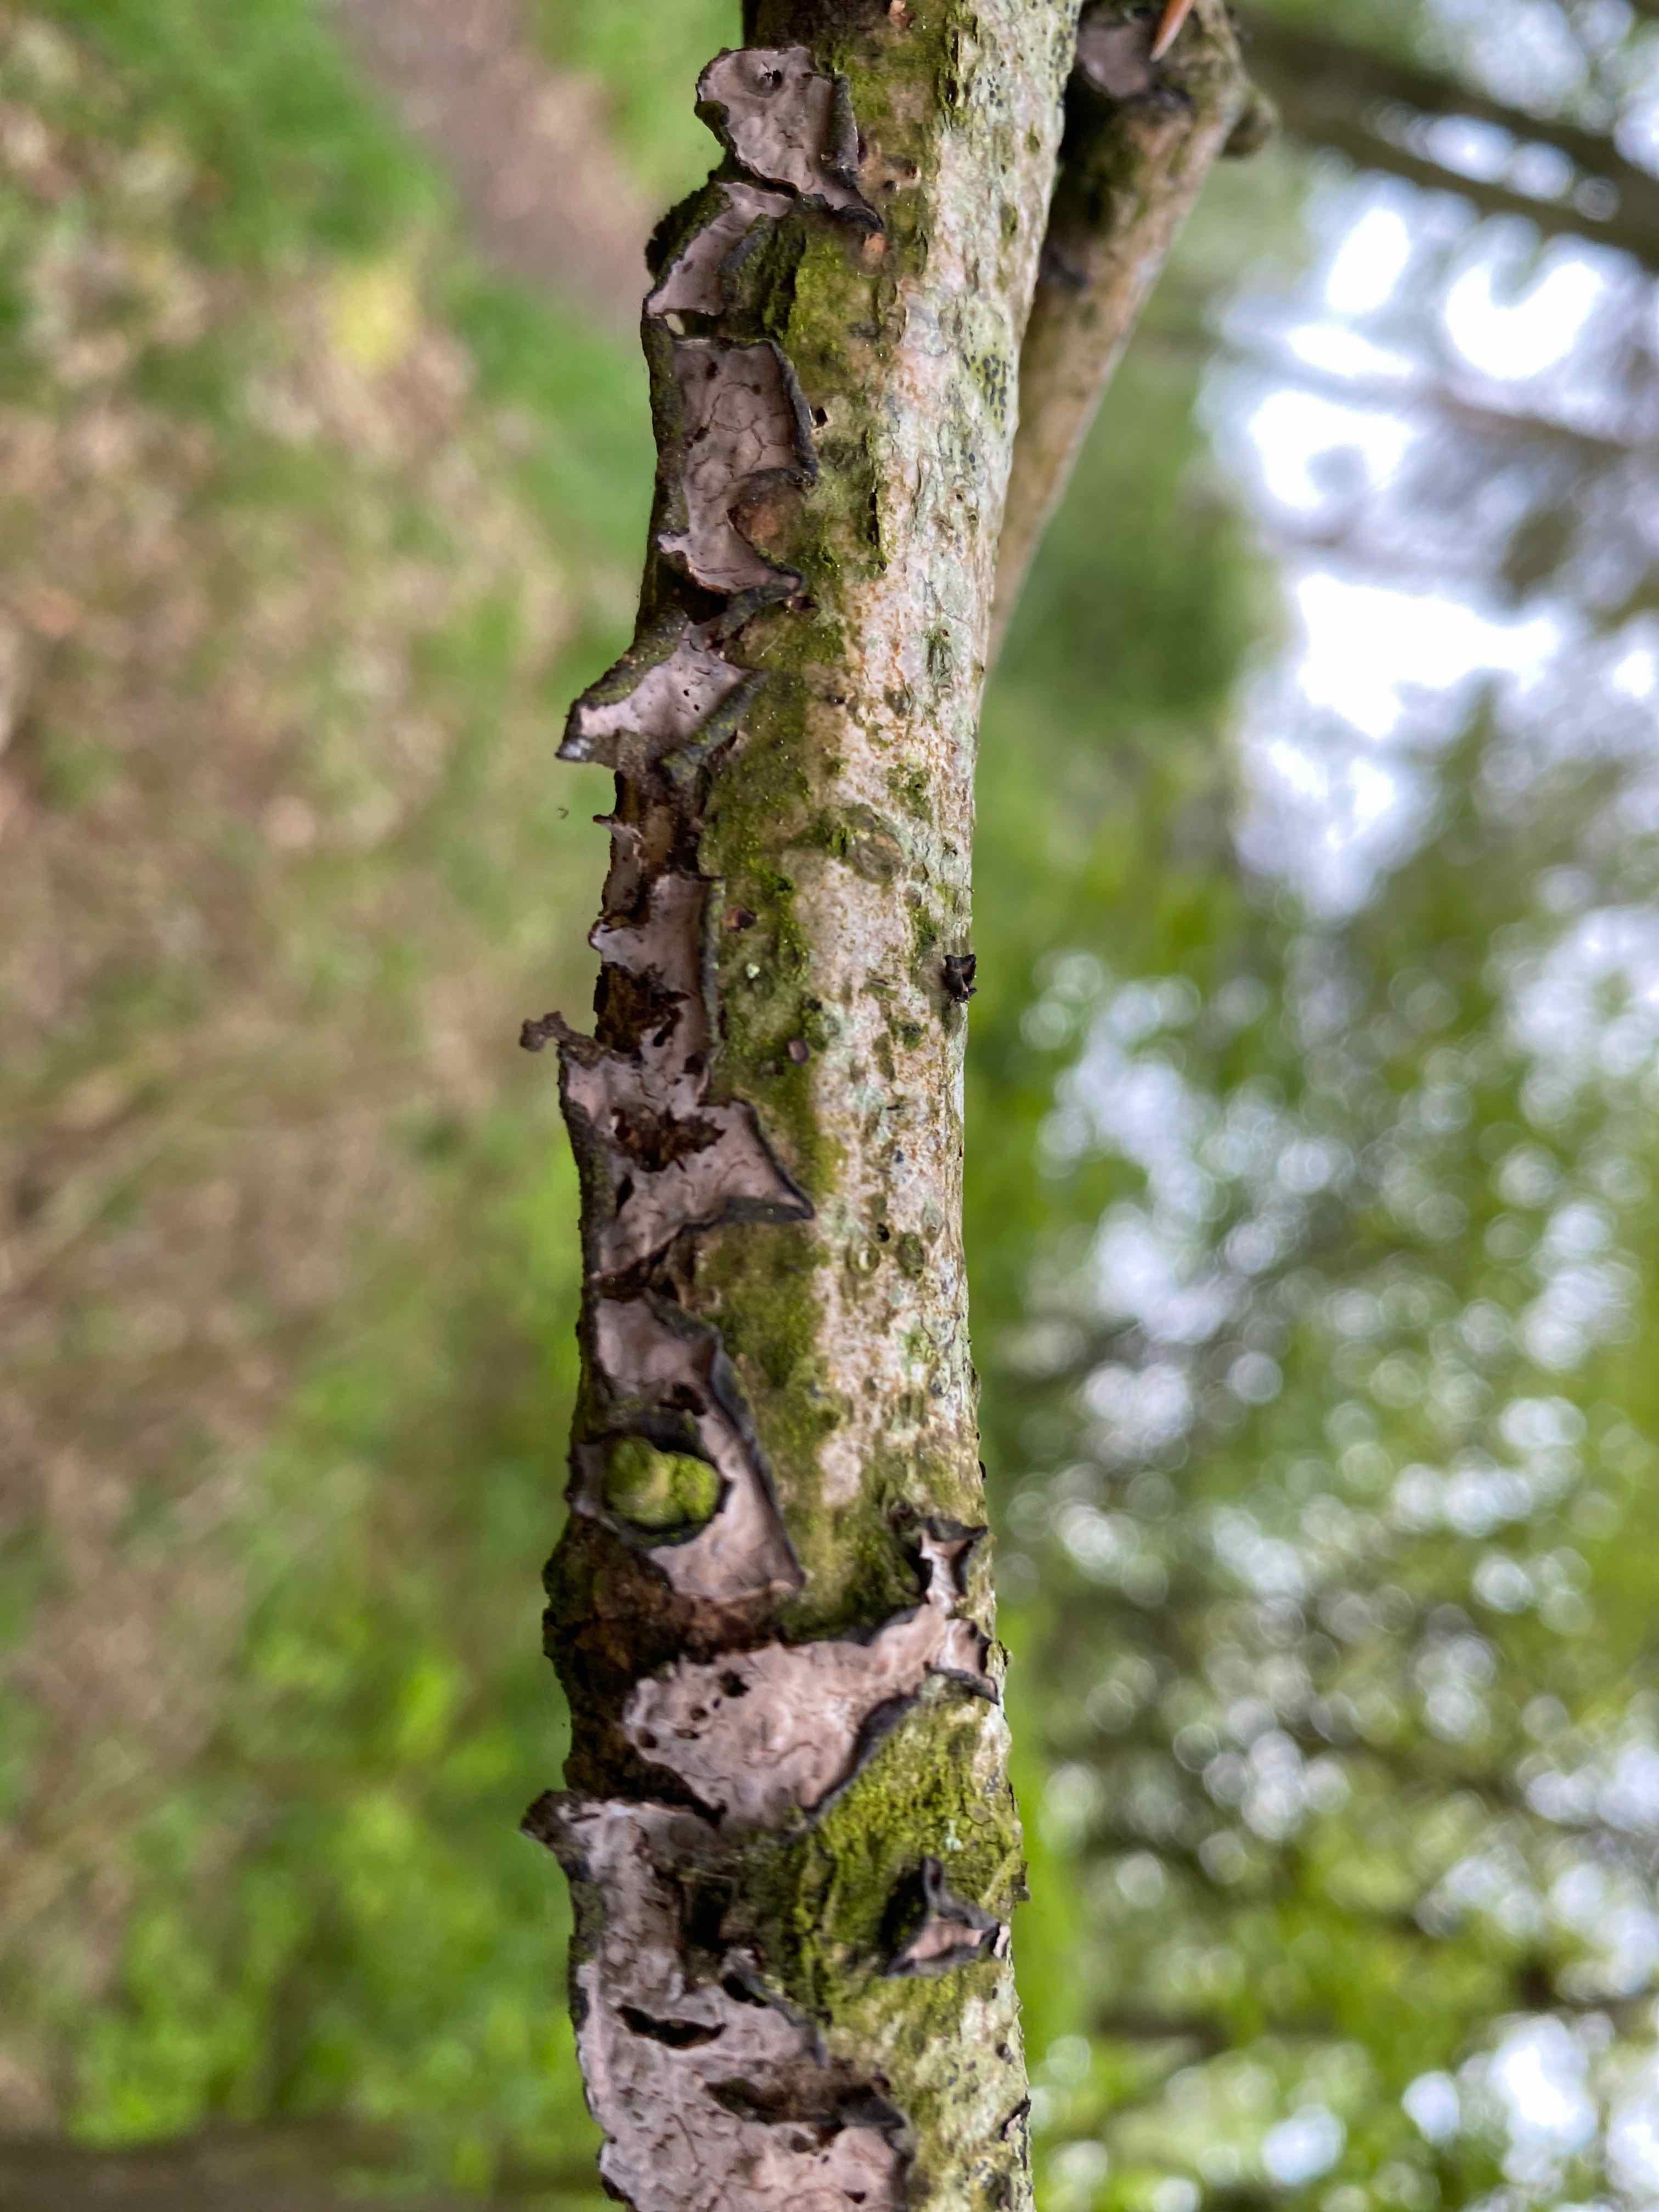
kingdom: Fungi
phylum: Basidiomycota
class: Agaricomycetes
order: Russulales
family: Peniophoraceae
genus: Peniophora
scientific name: Peniophora quercina
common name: ege-voksskind
